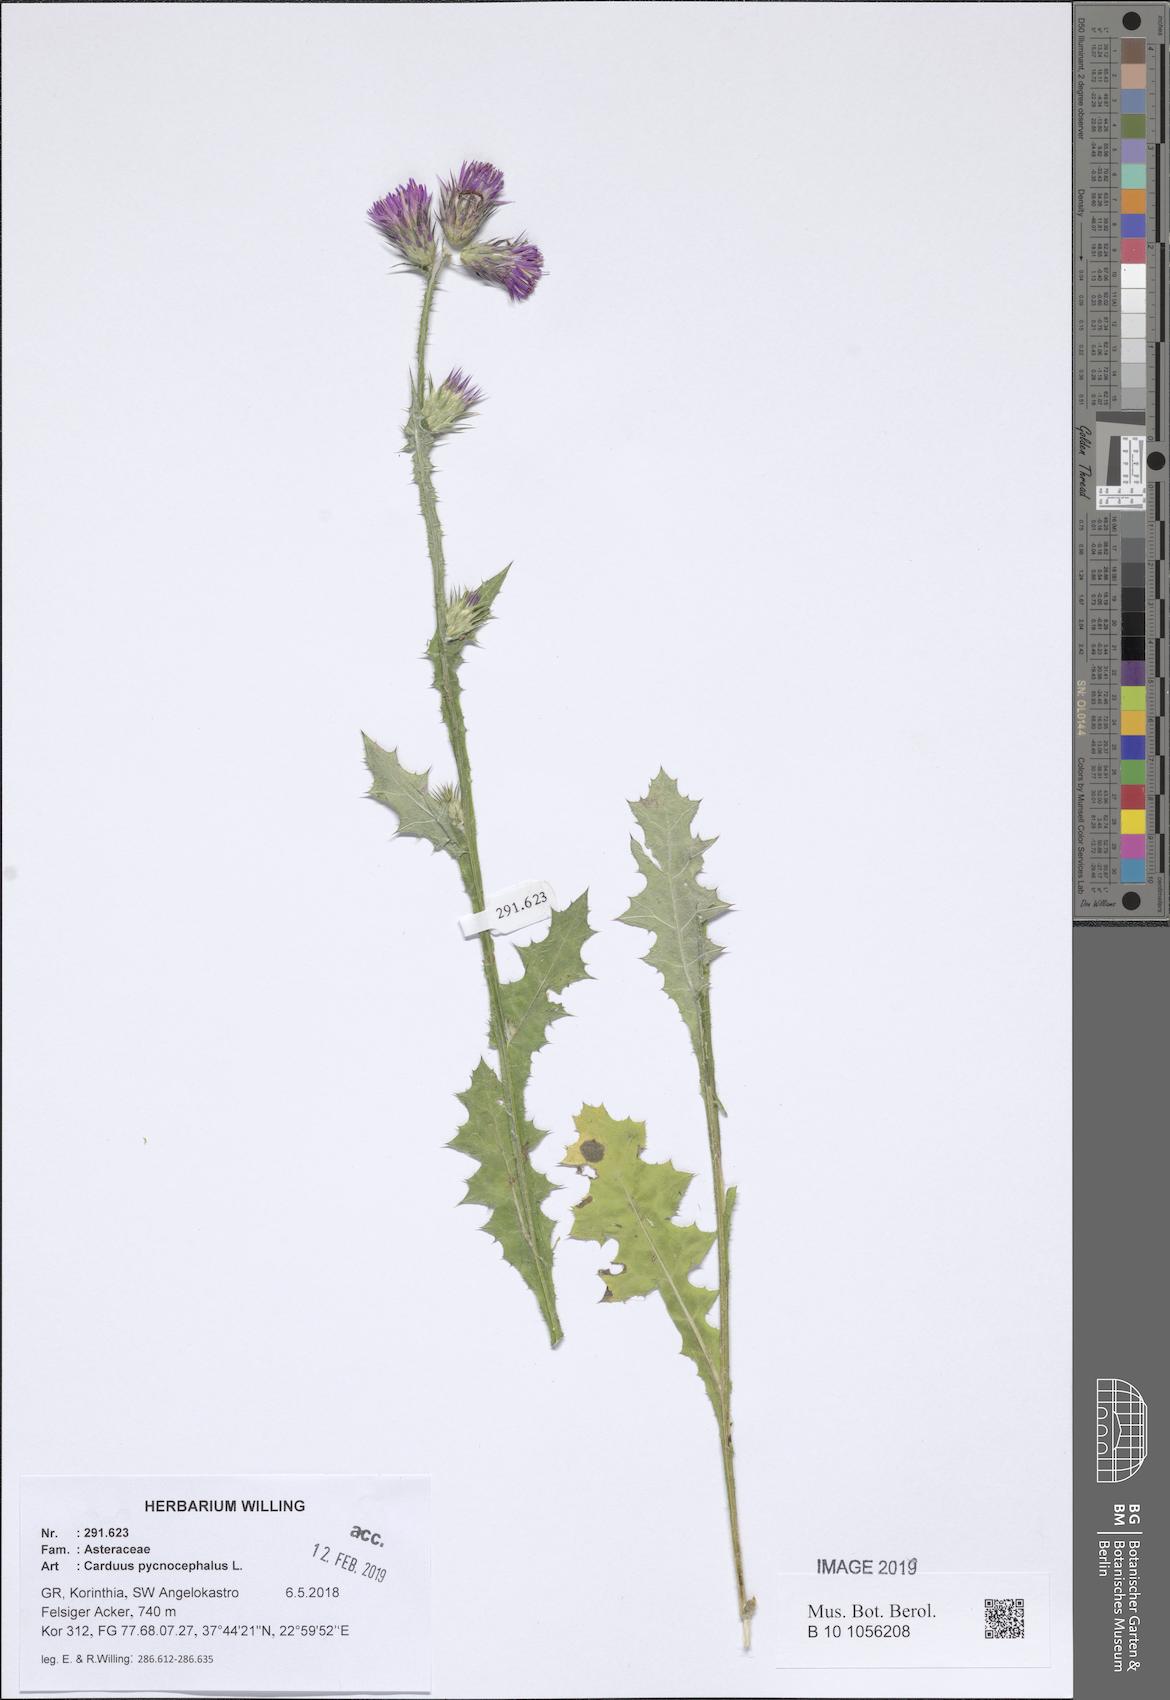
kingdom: Plantae
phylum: Tracheophyta
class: Magnoliopsida
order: Asterales
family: Asteraceae
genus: Carduus
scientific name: Carduus pycnocephalus
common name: Plymouth thistle
